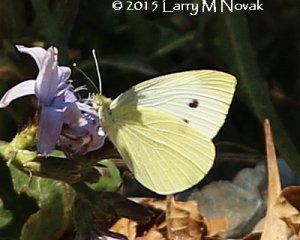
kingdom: Animalia
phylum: Arthropoda
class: Insecta
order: Lepidoptera
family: Pieridae
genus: Pieris
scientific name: Pieris rapae
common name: Cabbage White
